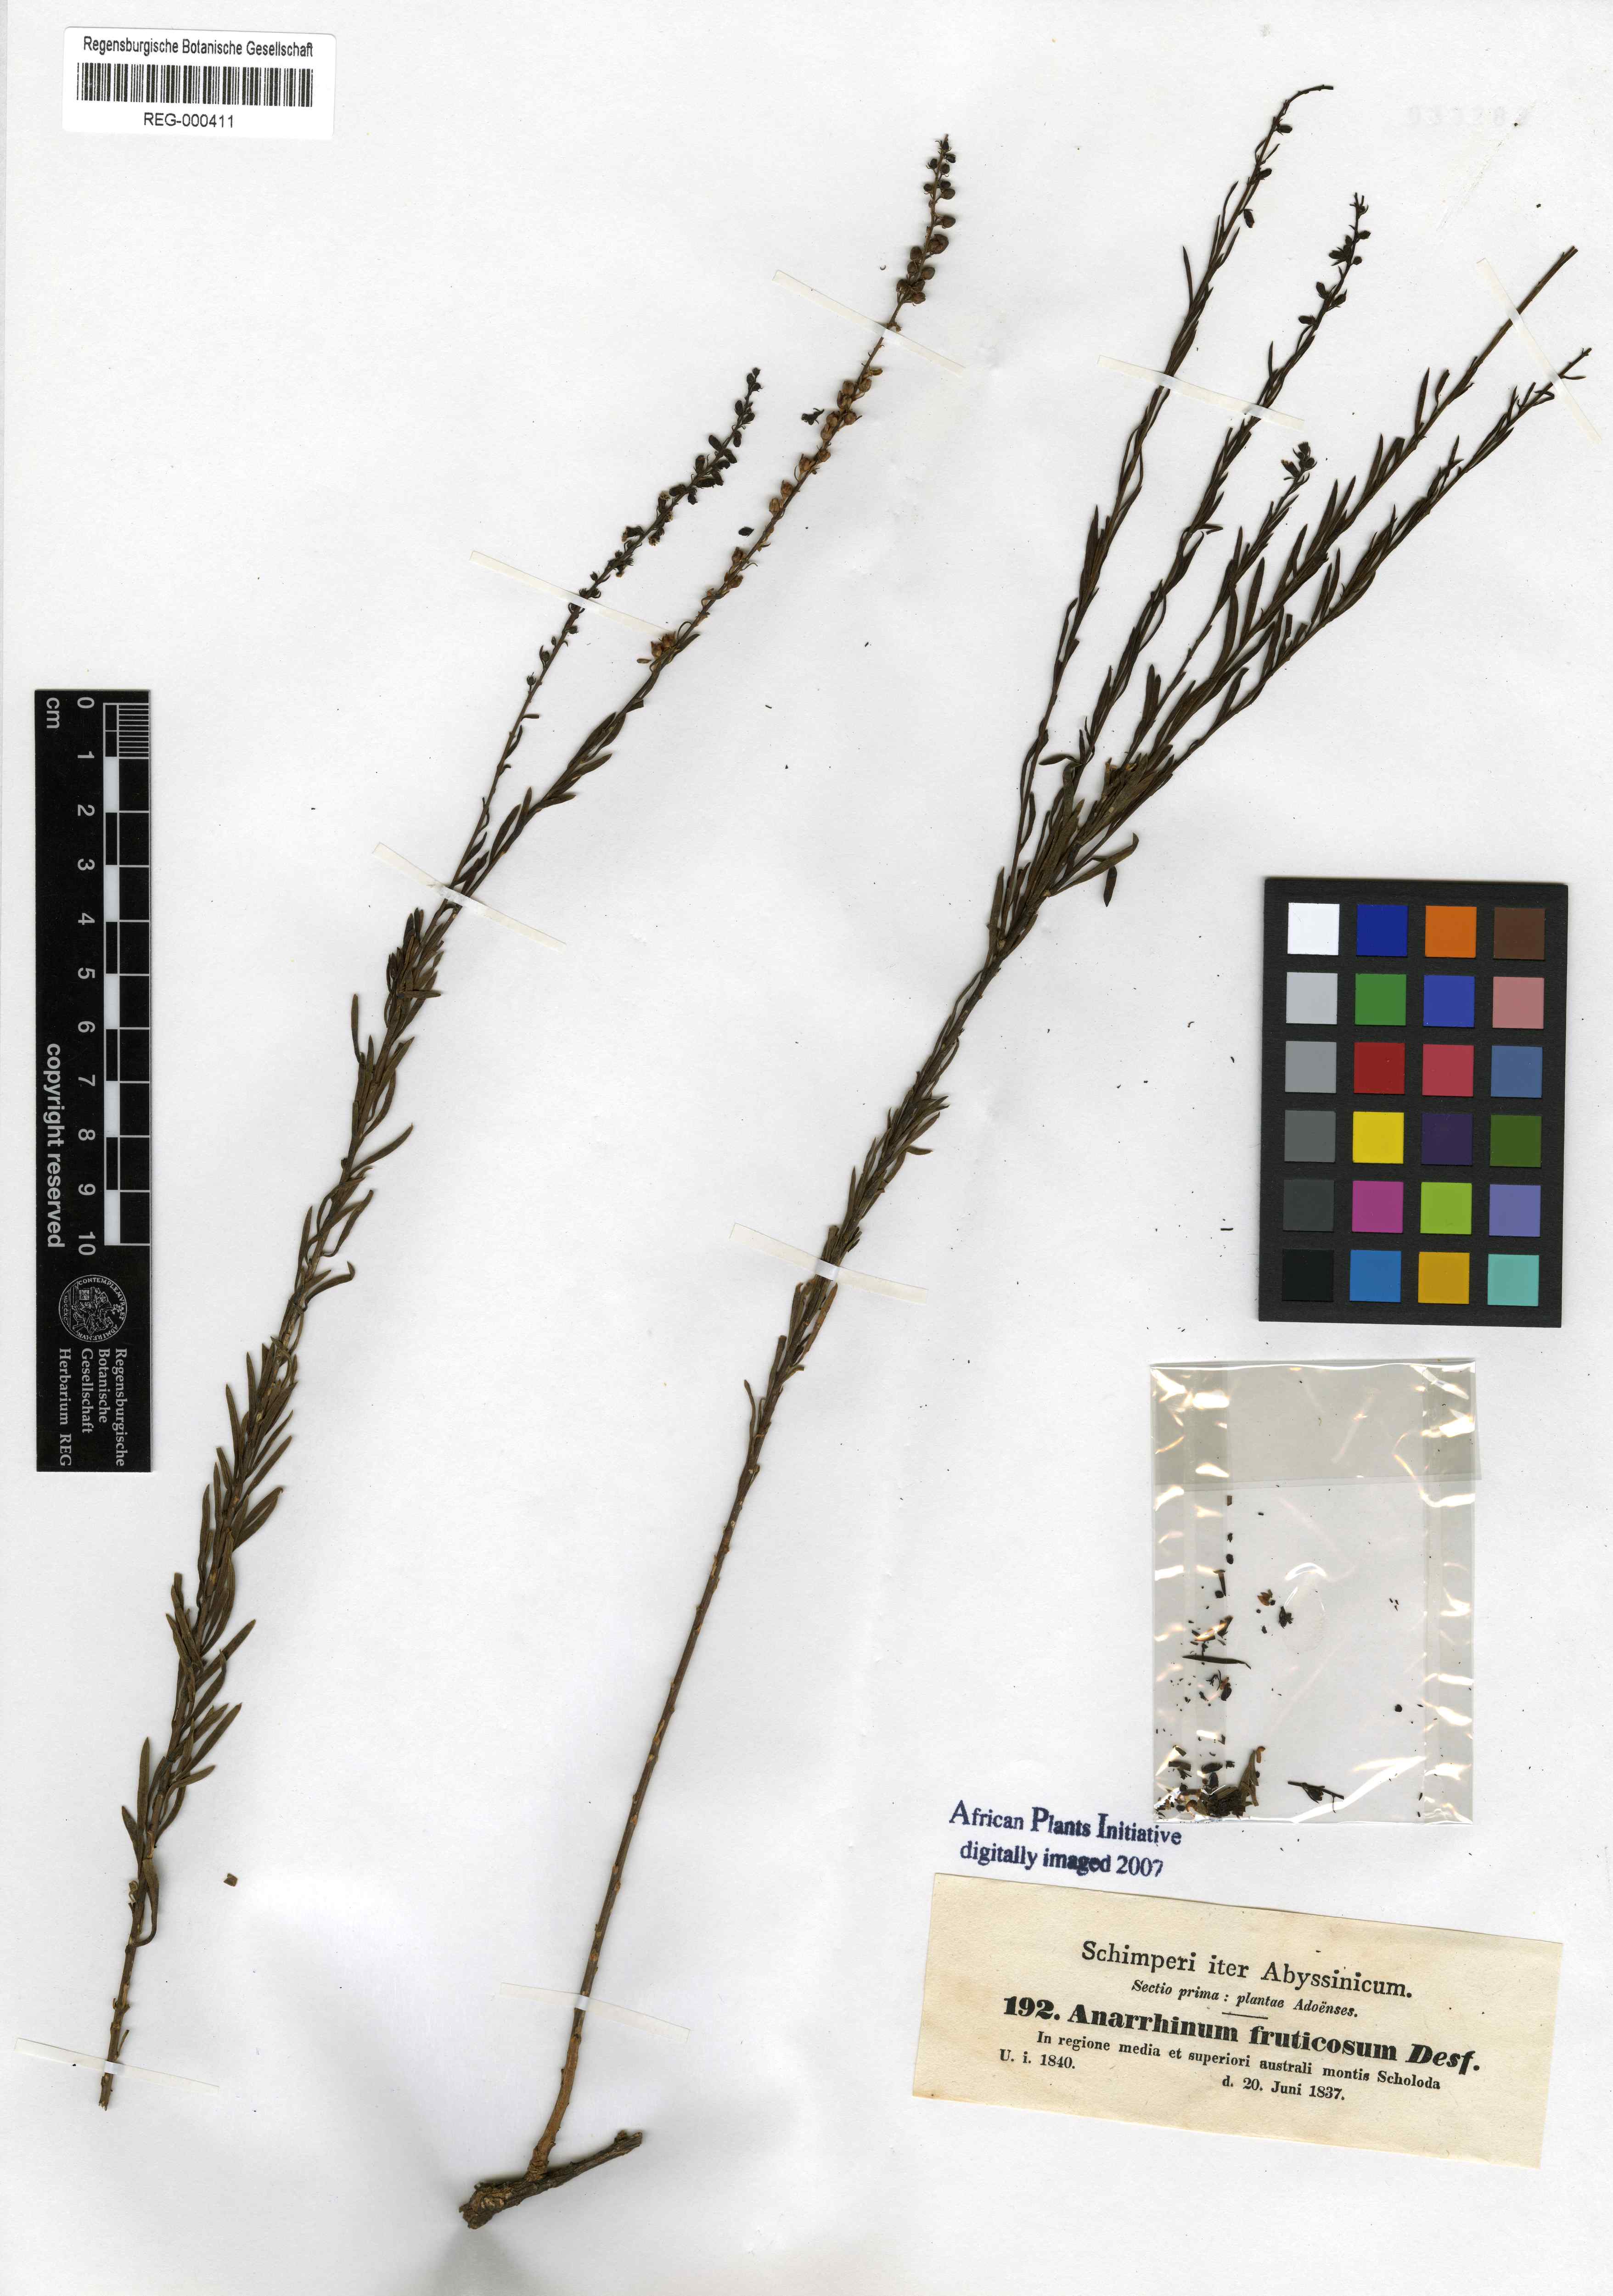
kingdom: Plantae
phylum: Tracheophyta
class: Magnoliopsida
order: Lamiales
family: Plantaginaceae
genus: Anarrhinum
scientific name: Anarrhinum fruticosum
